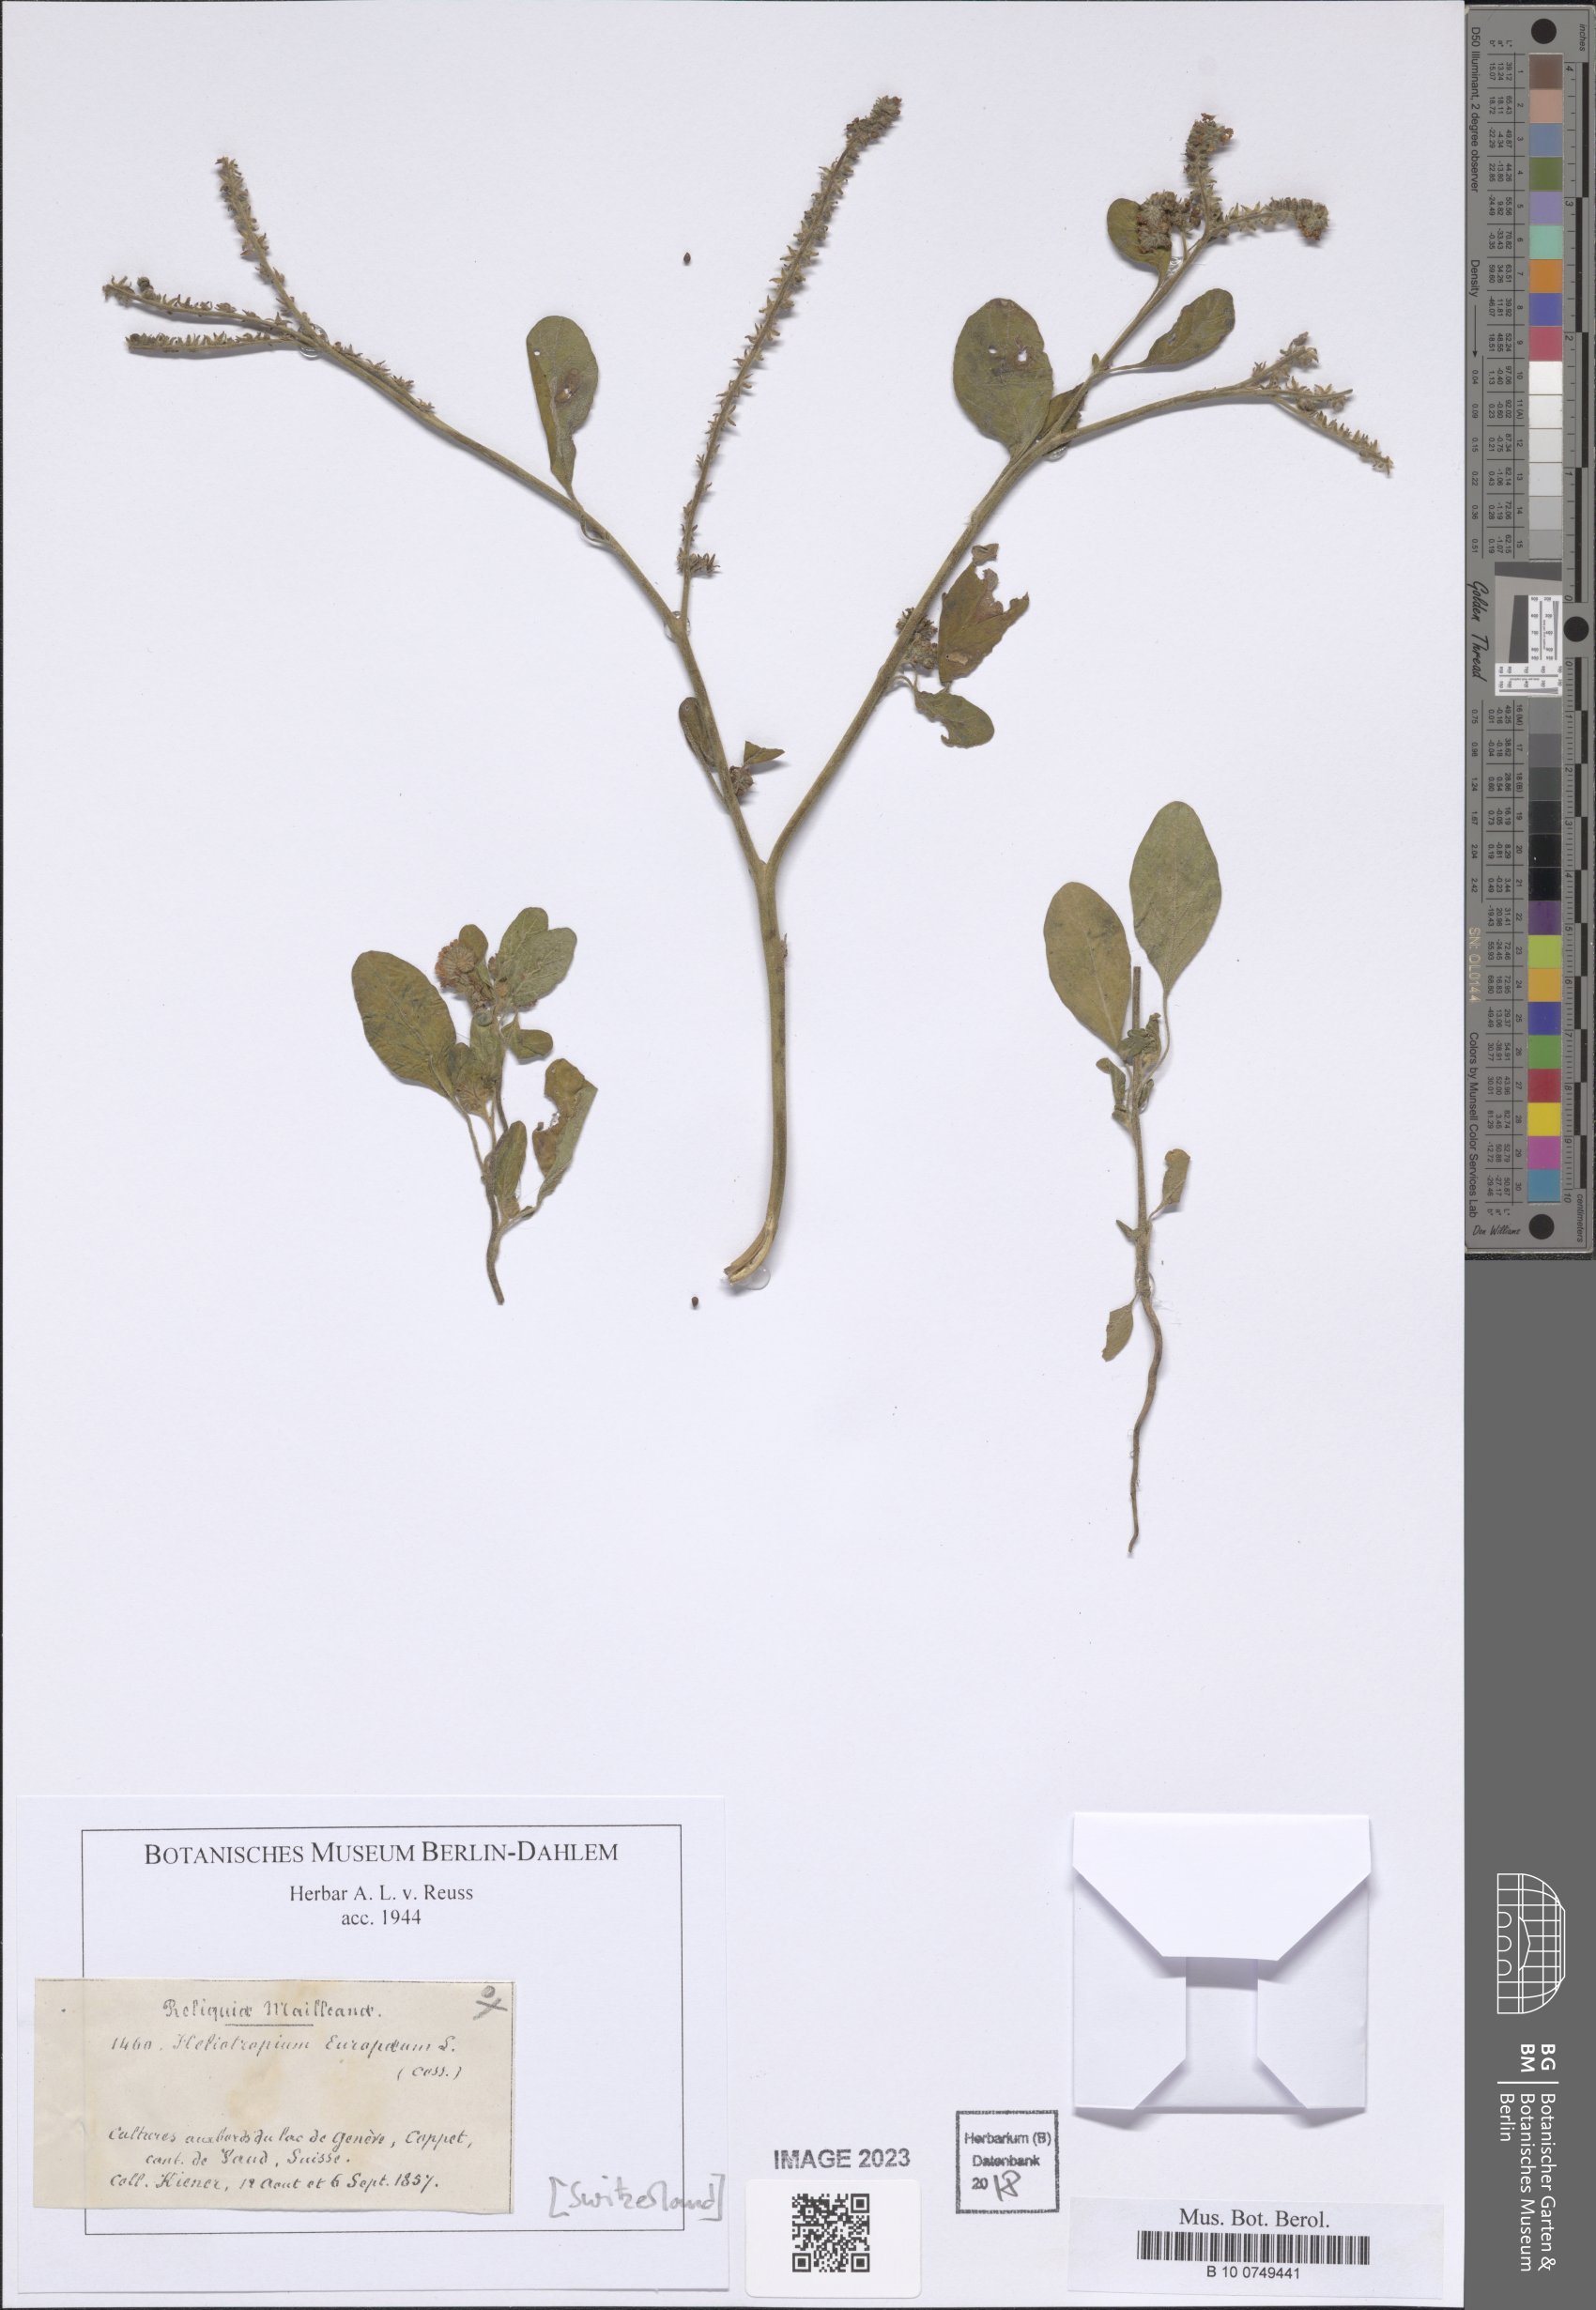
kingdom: Plantae
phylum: Tracheophyta
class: Magnoliopsida
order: Boraginales
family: Heliotropiaceae
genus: Heliotropium
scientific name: Heliotropium europaeum
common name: European heliotrope
